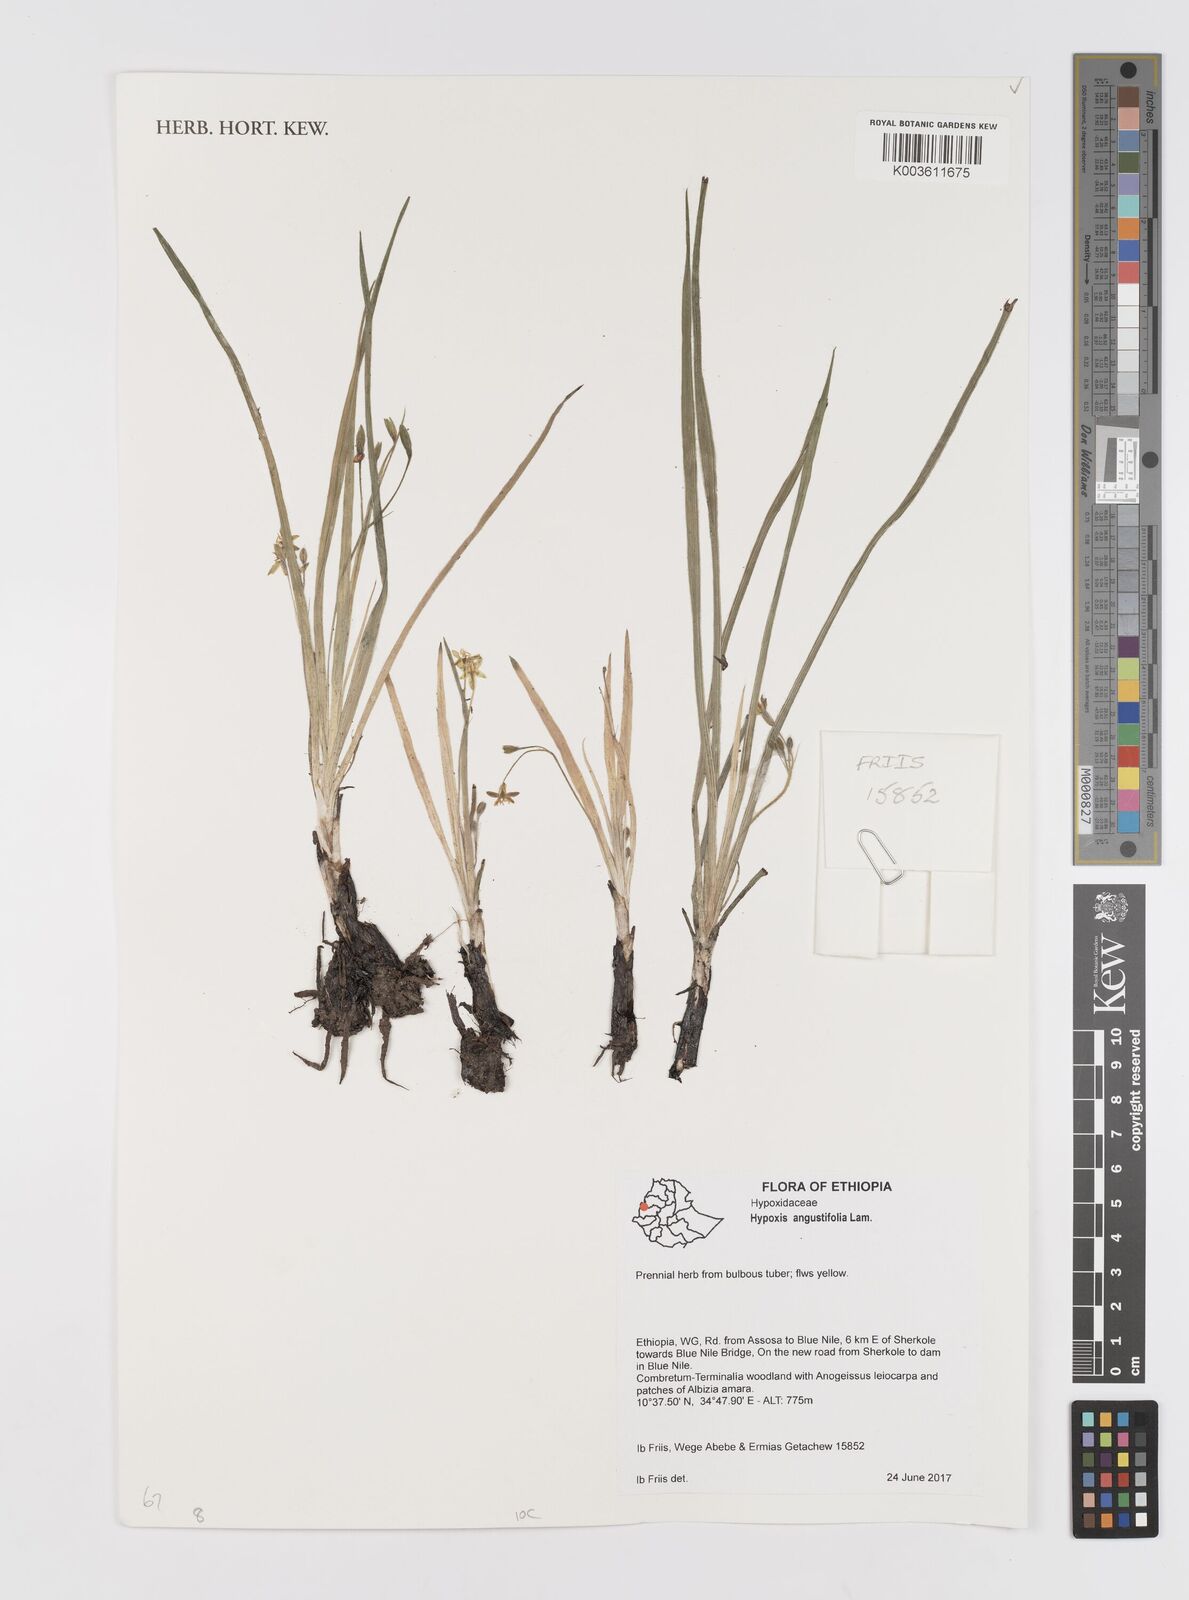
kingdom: Plantae
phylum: Tracheophyta
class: Liliopsida
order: Asparagales
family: Hypoxidaceae
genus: Hypoxis
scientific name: Hypoxis angustifolia
